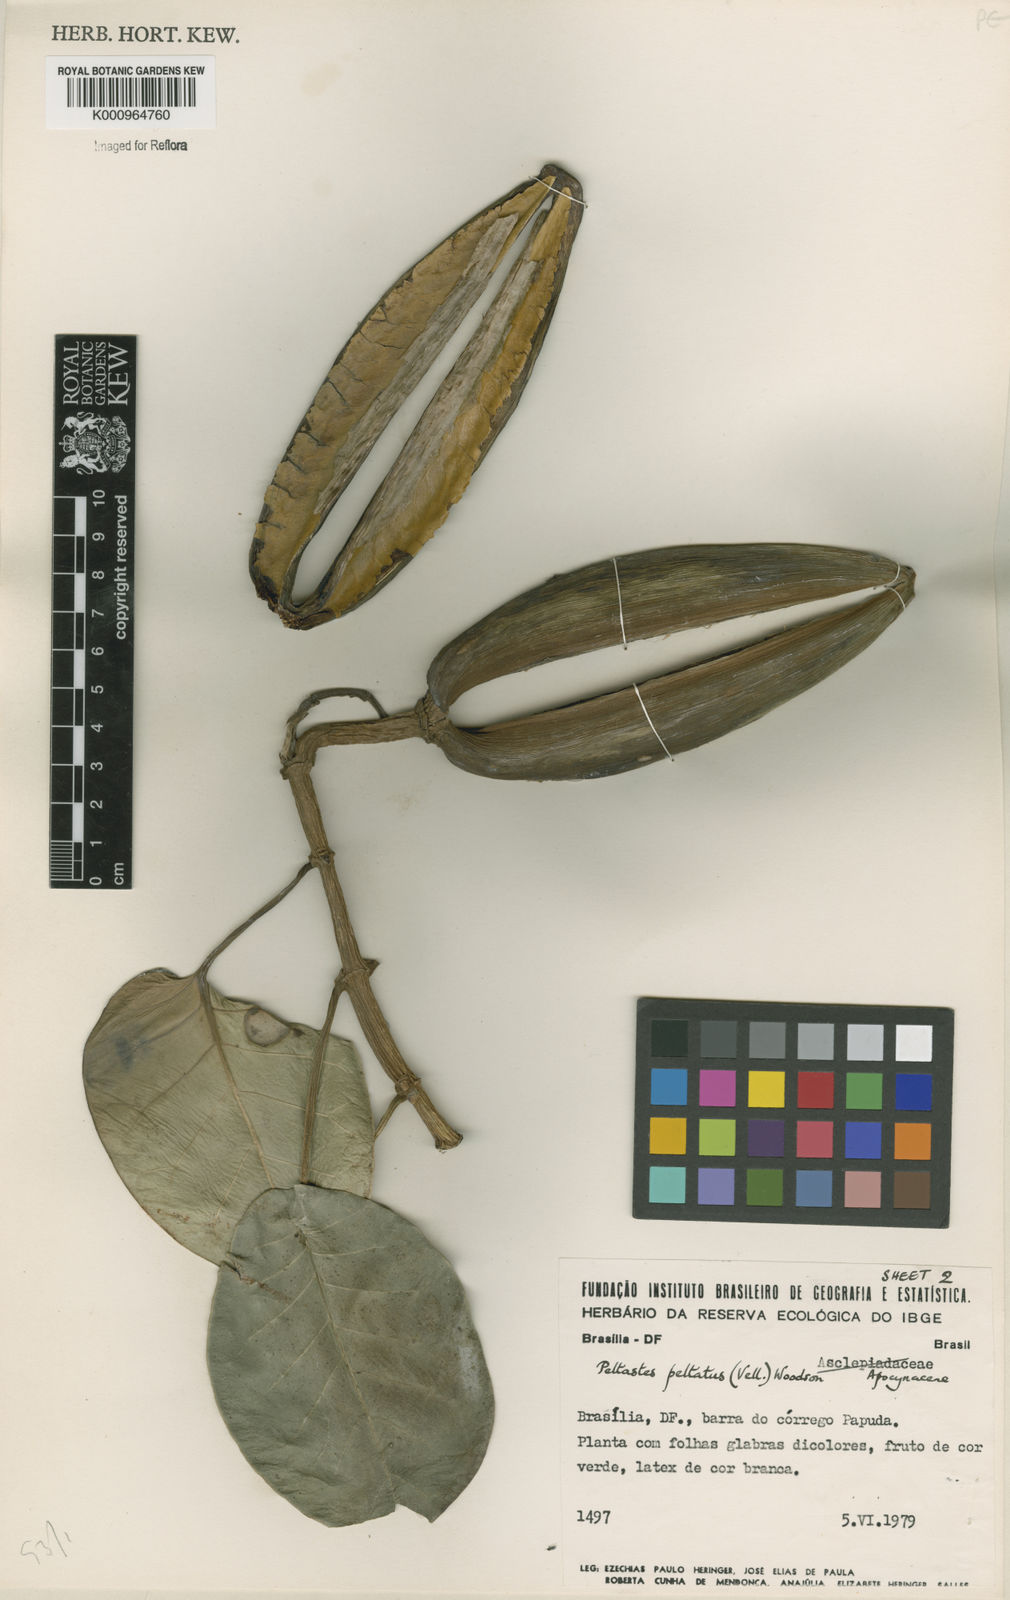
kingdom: Plantae
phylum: Tracheophyta
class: Magnoliopsida
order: Gentianales
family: Apocynaceae
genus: Macropharynx
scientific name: Macropharynx peltata
